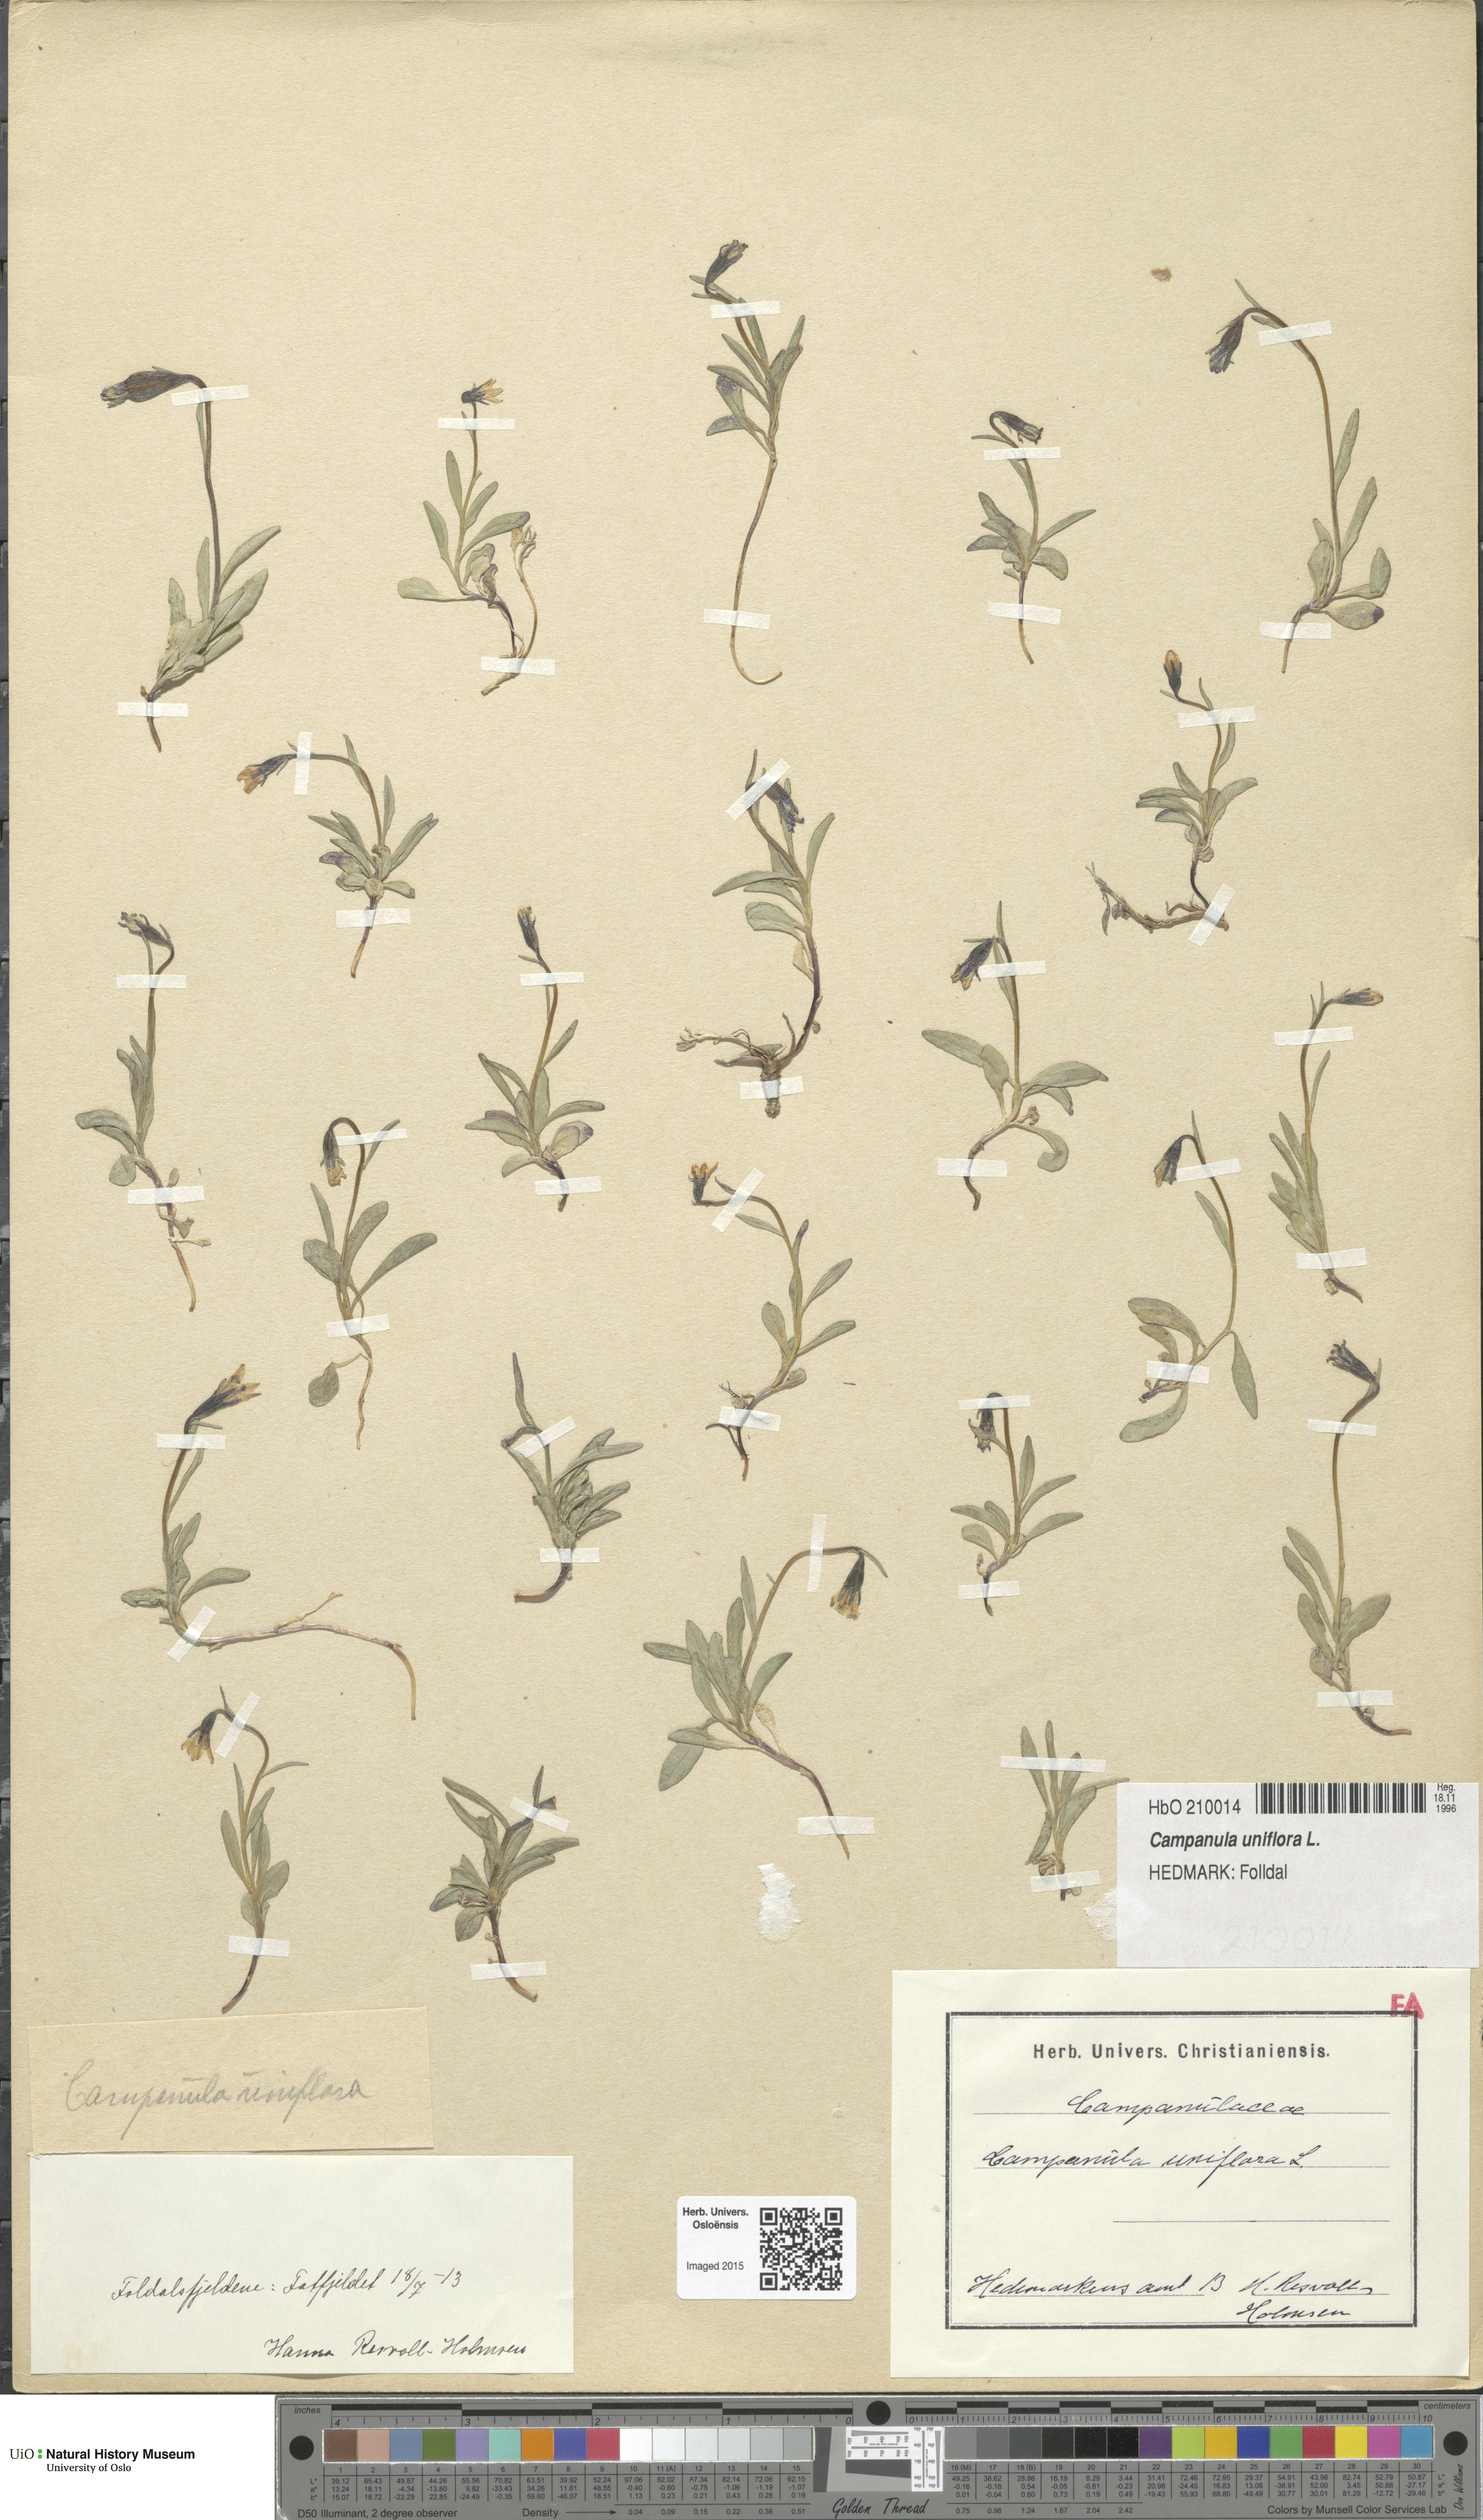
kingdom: Plantae
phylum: Tracheophyta
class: Magnoliopsida
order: Asterales
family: Campanulaceae
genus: Melanocalyx
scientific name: Melanocalyx uniflora
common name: Alpine harebell
